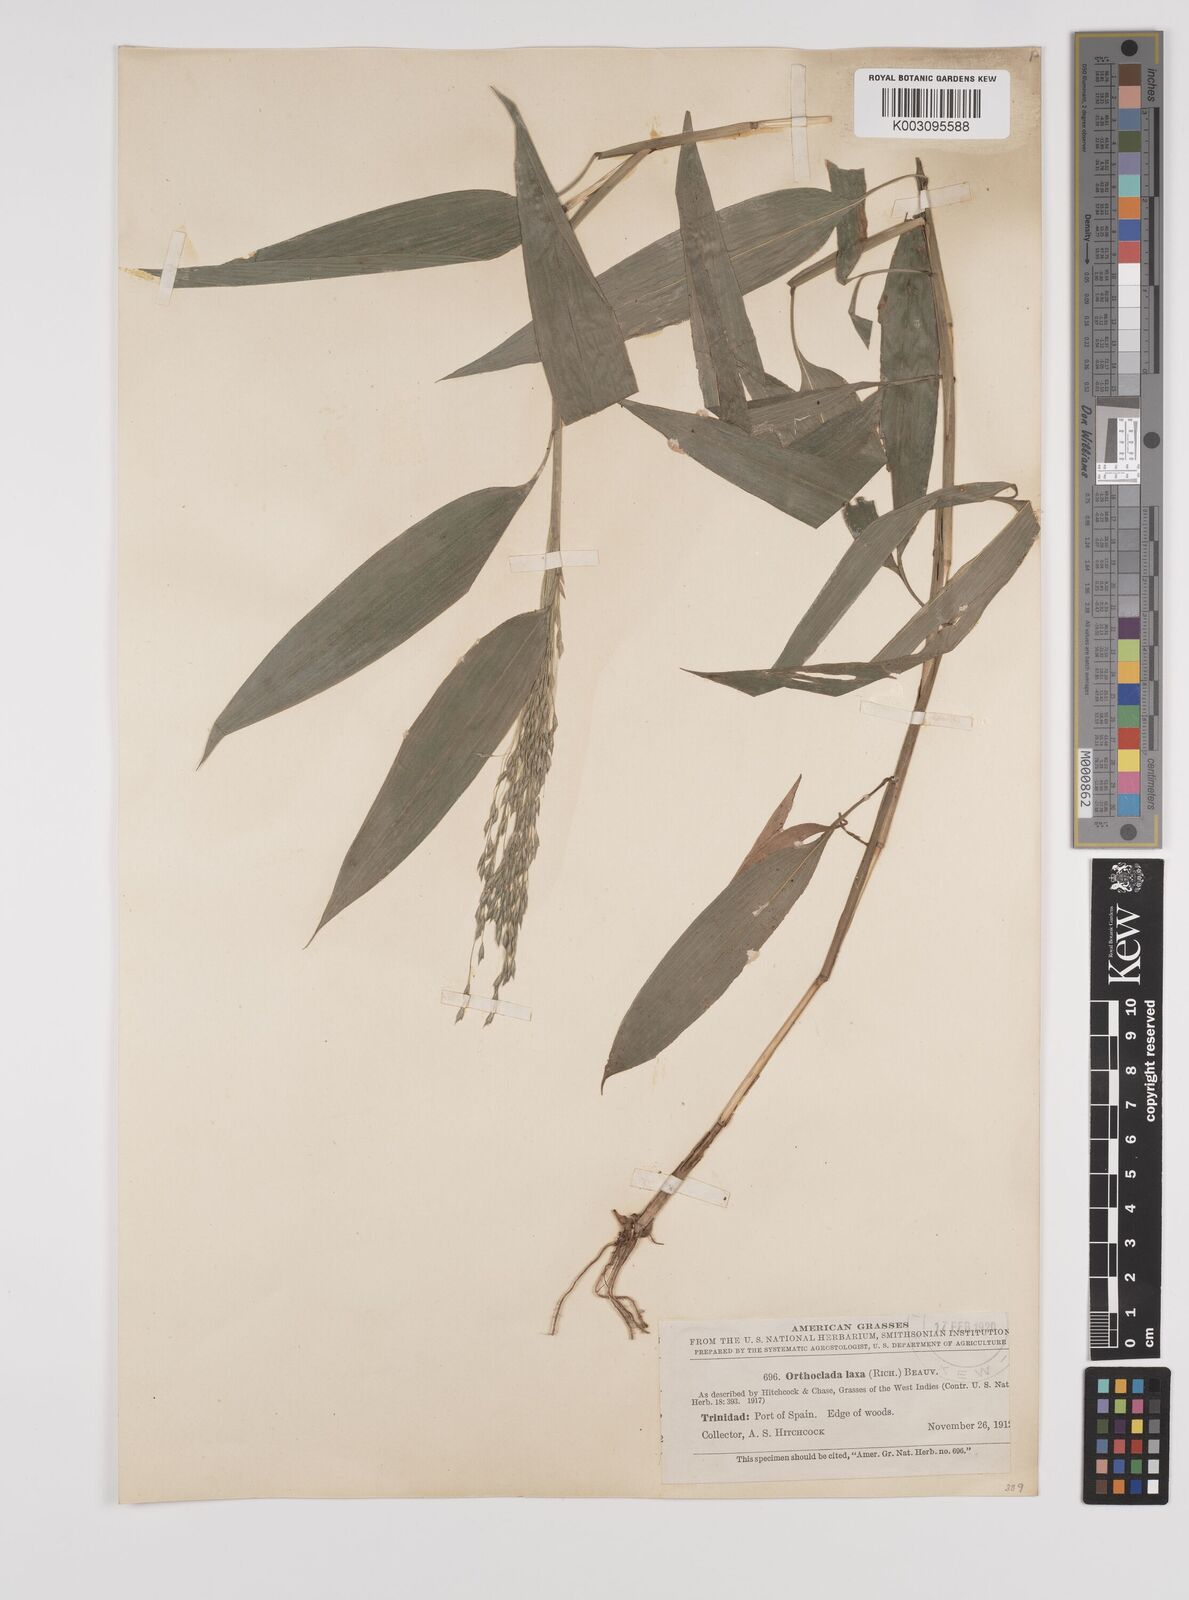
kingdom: Plantae
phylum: Tracheophyta
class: Liliopsida
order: Poales
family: Poaceae
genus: Orthoclada
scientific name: Orthoclada laxa
